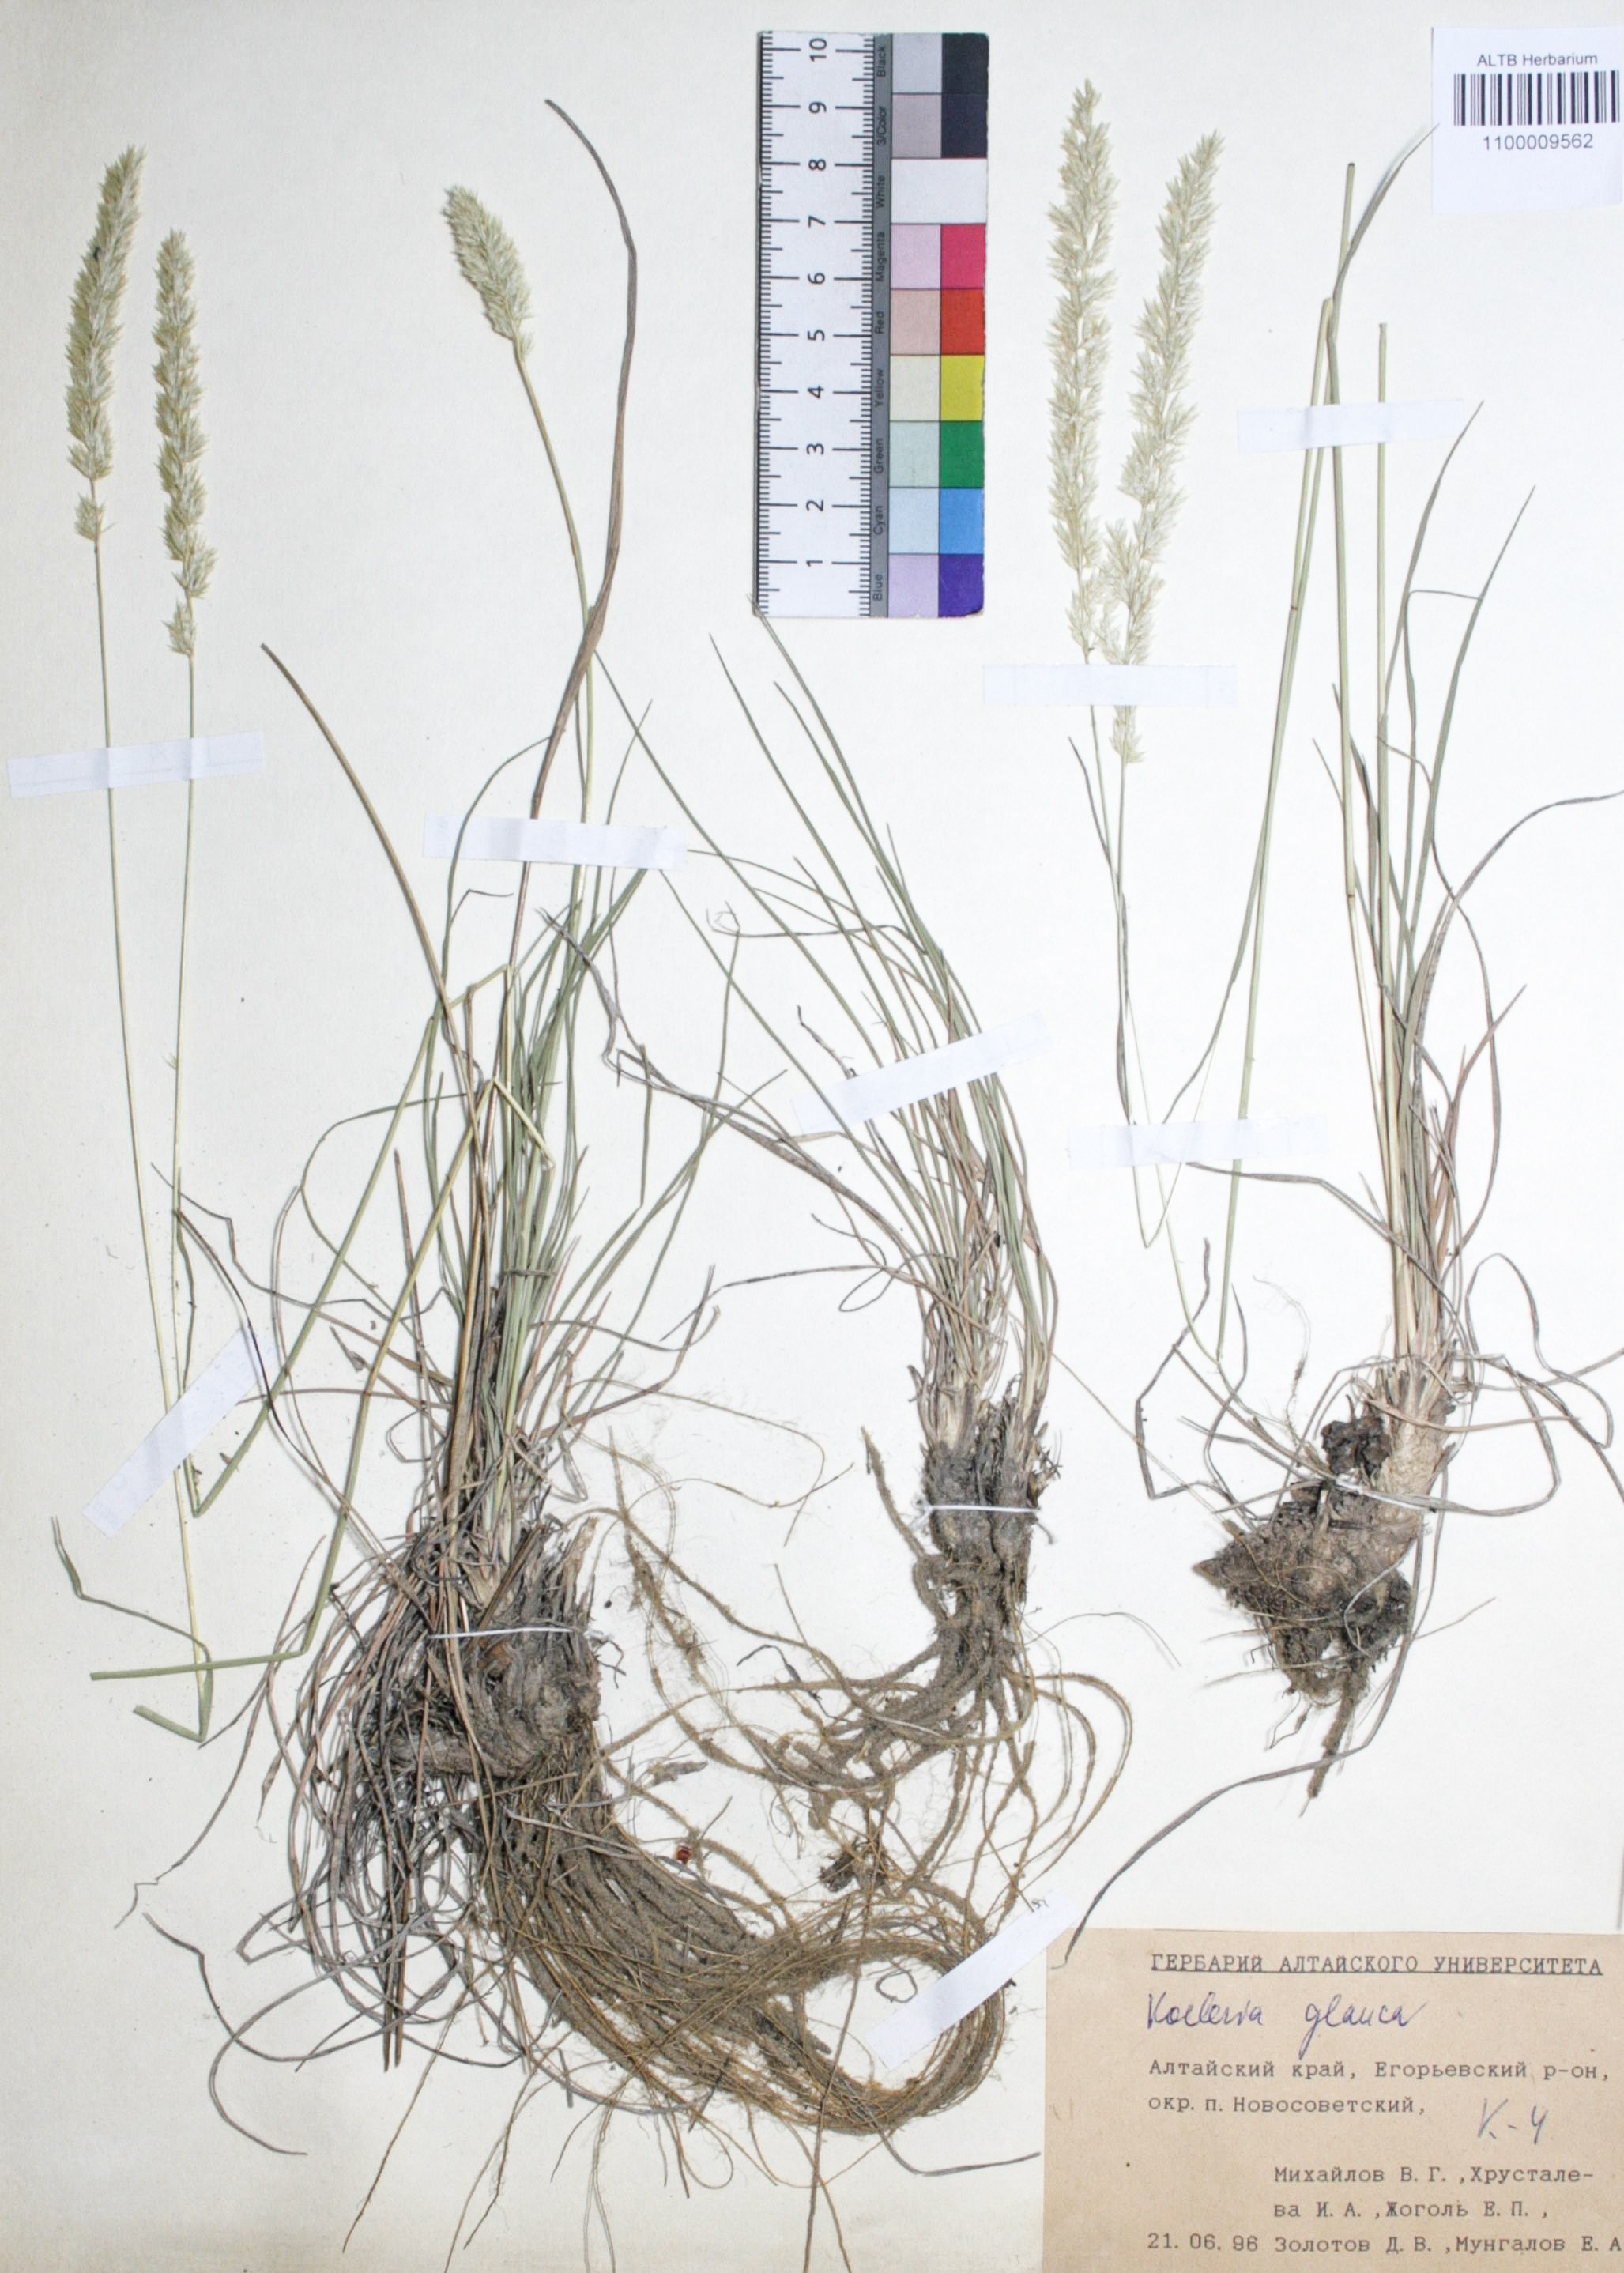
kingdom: Plantae
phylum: Tracheophyta
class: Liliopsida
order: Poales
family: Poaceae
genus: Koeleria
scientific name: Koeleria glauca
